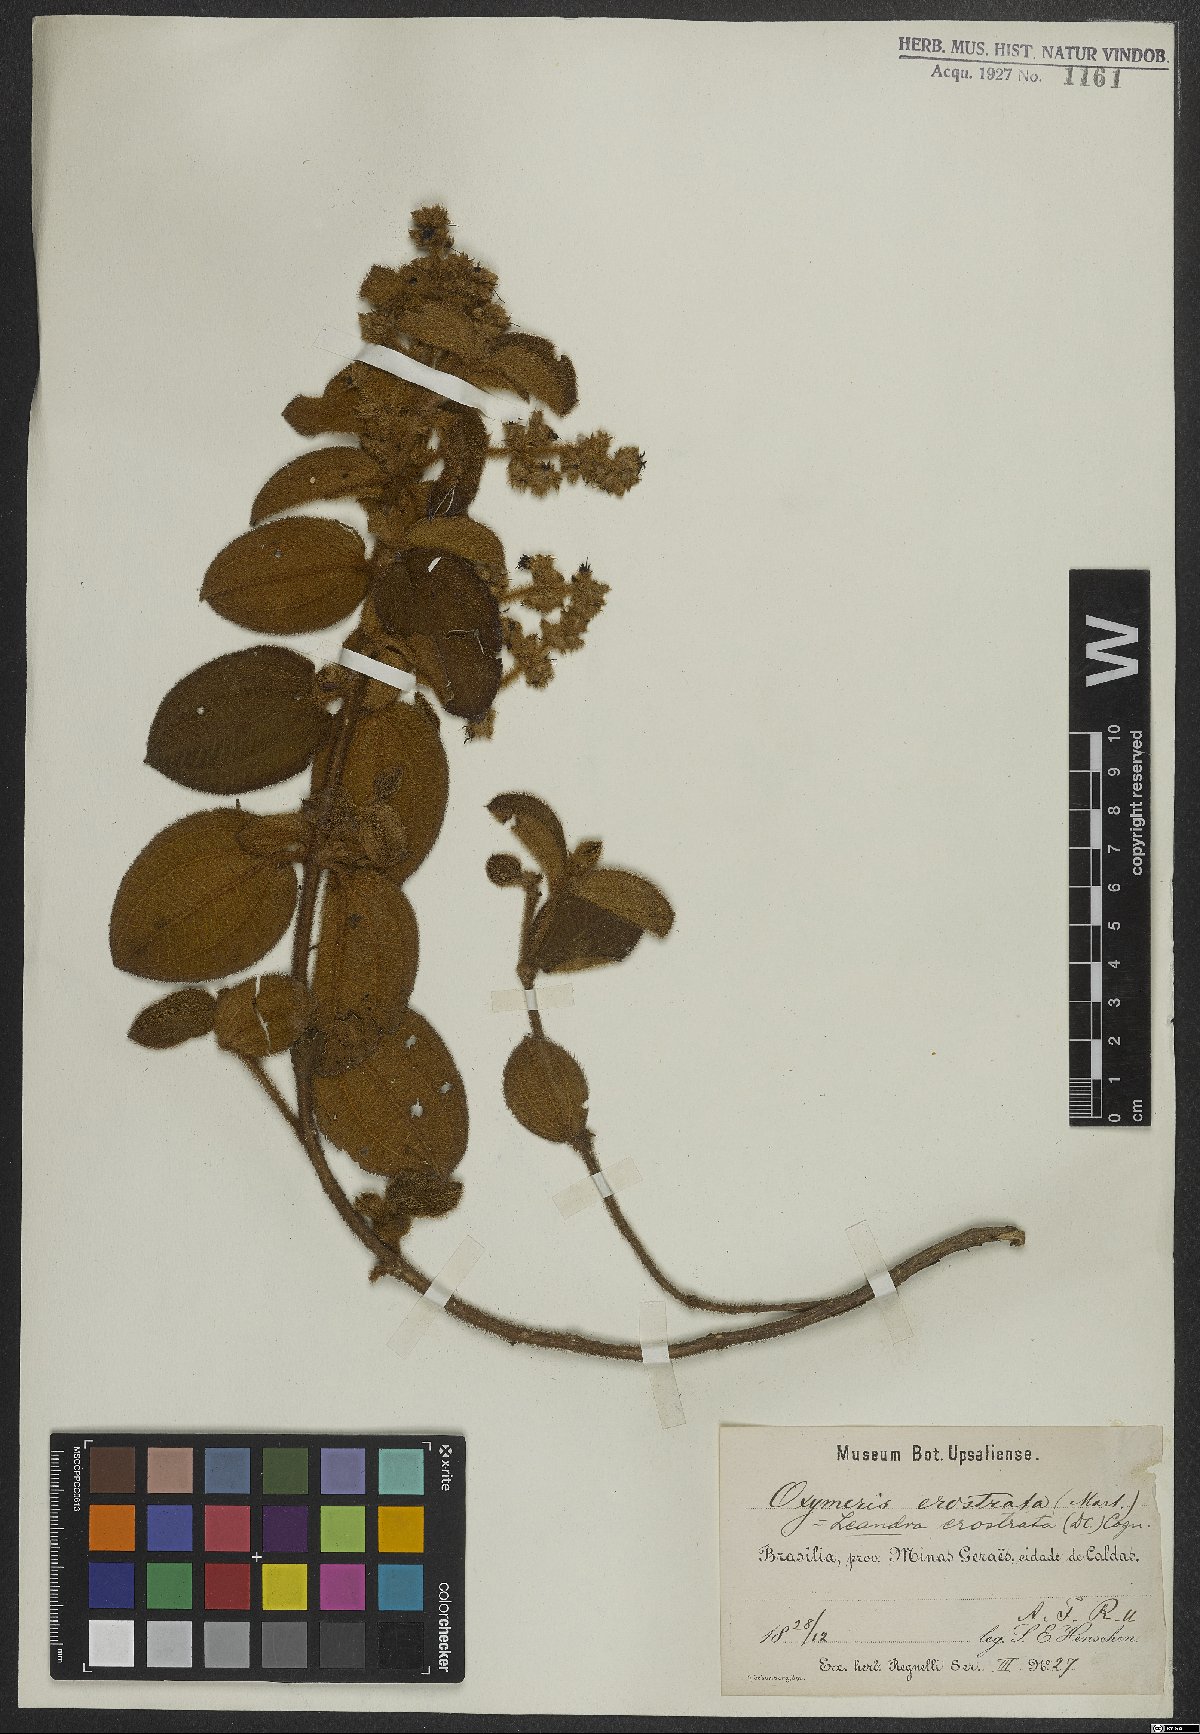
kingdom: Plantae
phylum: Tracheophyta
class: Magnoliopsida
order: Myrtales
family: Melastomataceae
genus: Miconia
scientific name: Miconia erostrata
